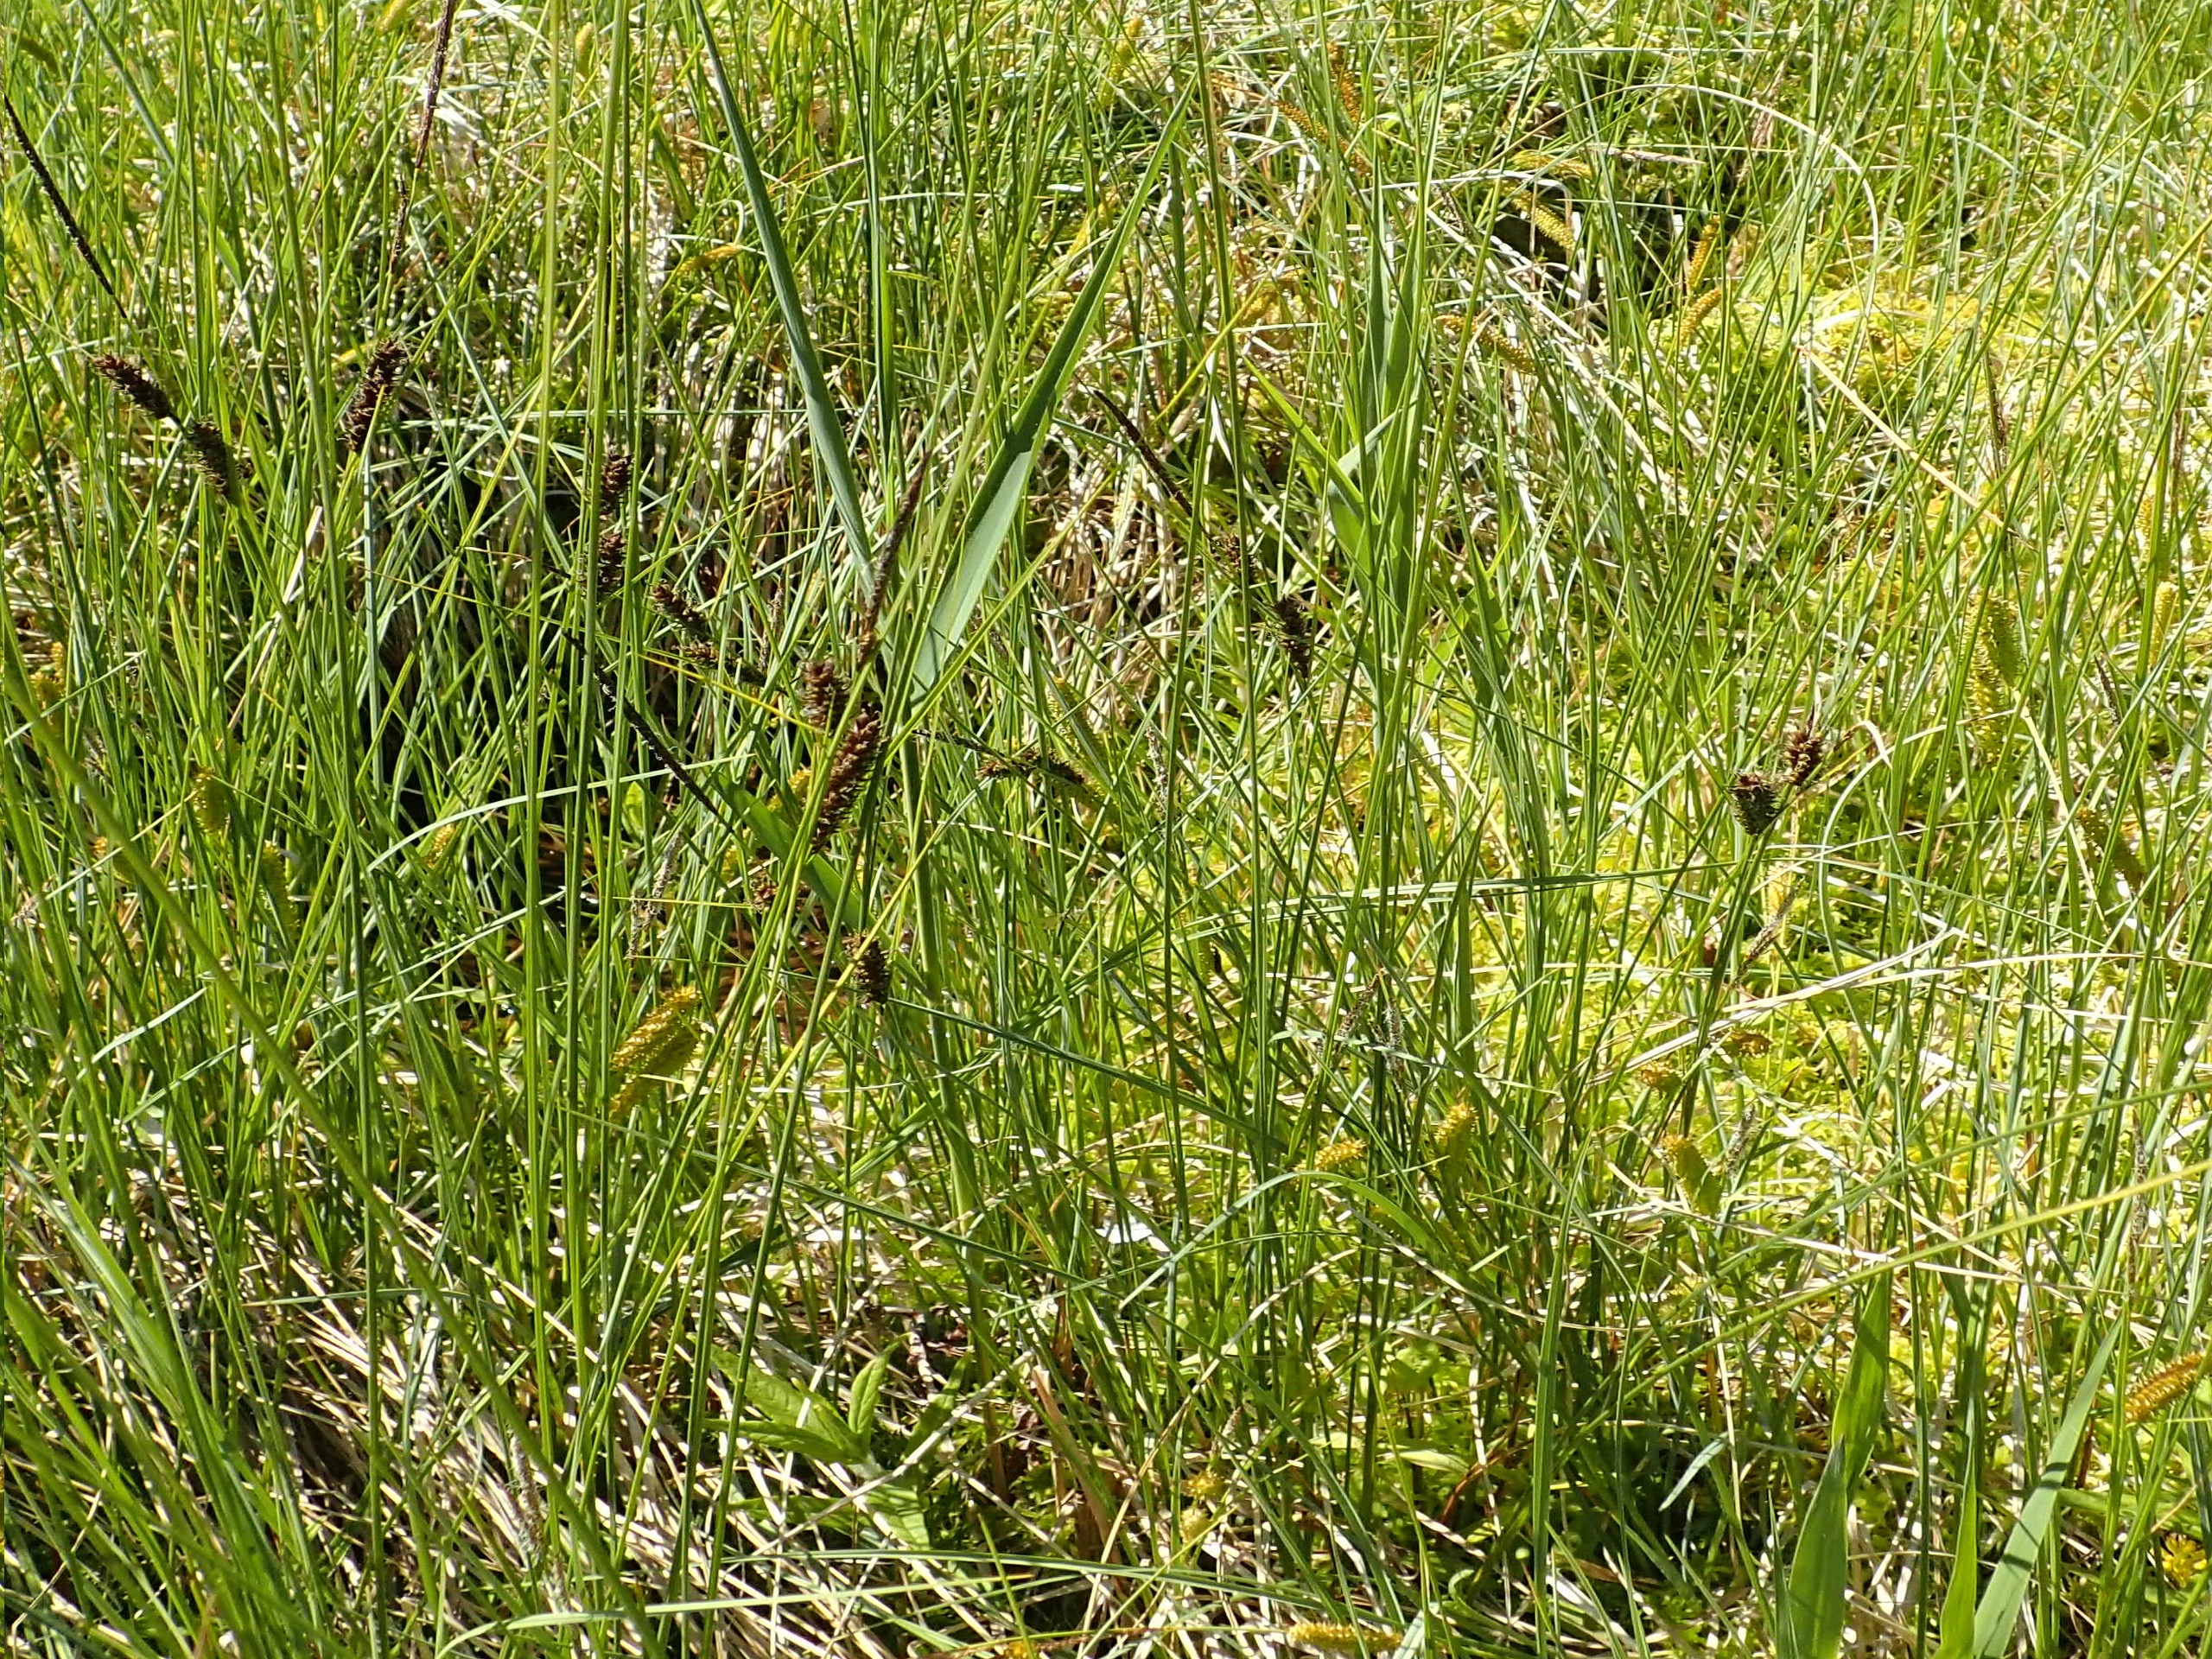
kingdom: Plantae
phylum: Tracheophyta
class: Liliopsida
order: Poales
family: Cyperaceae
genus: Carex
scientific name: Carex lasiocarpa
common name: Tråd-star
